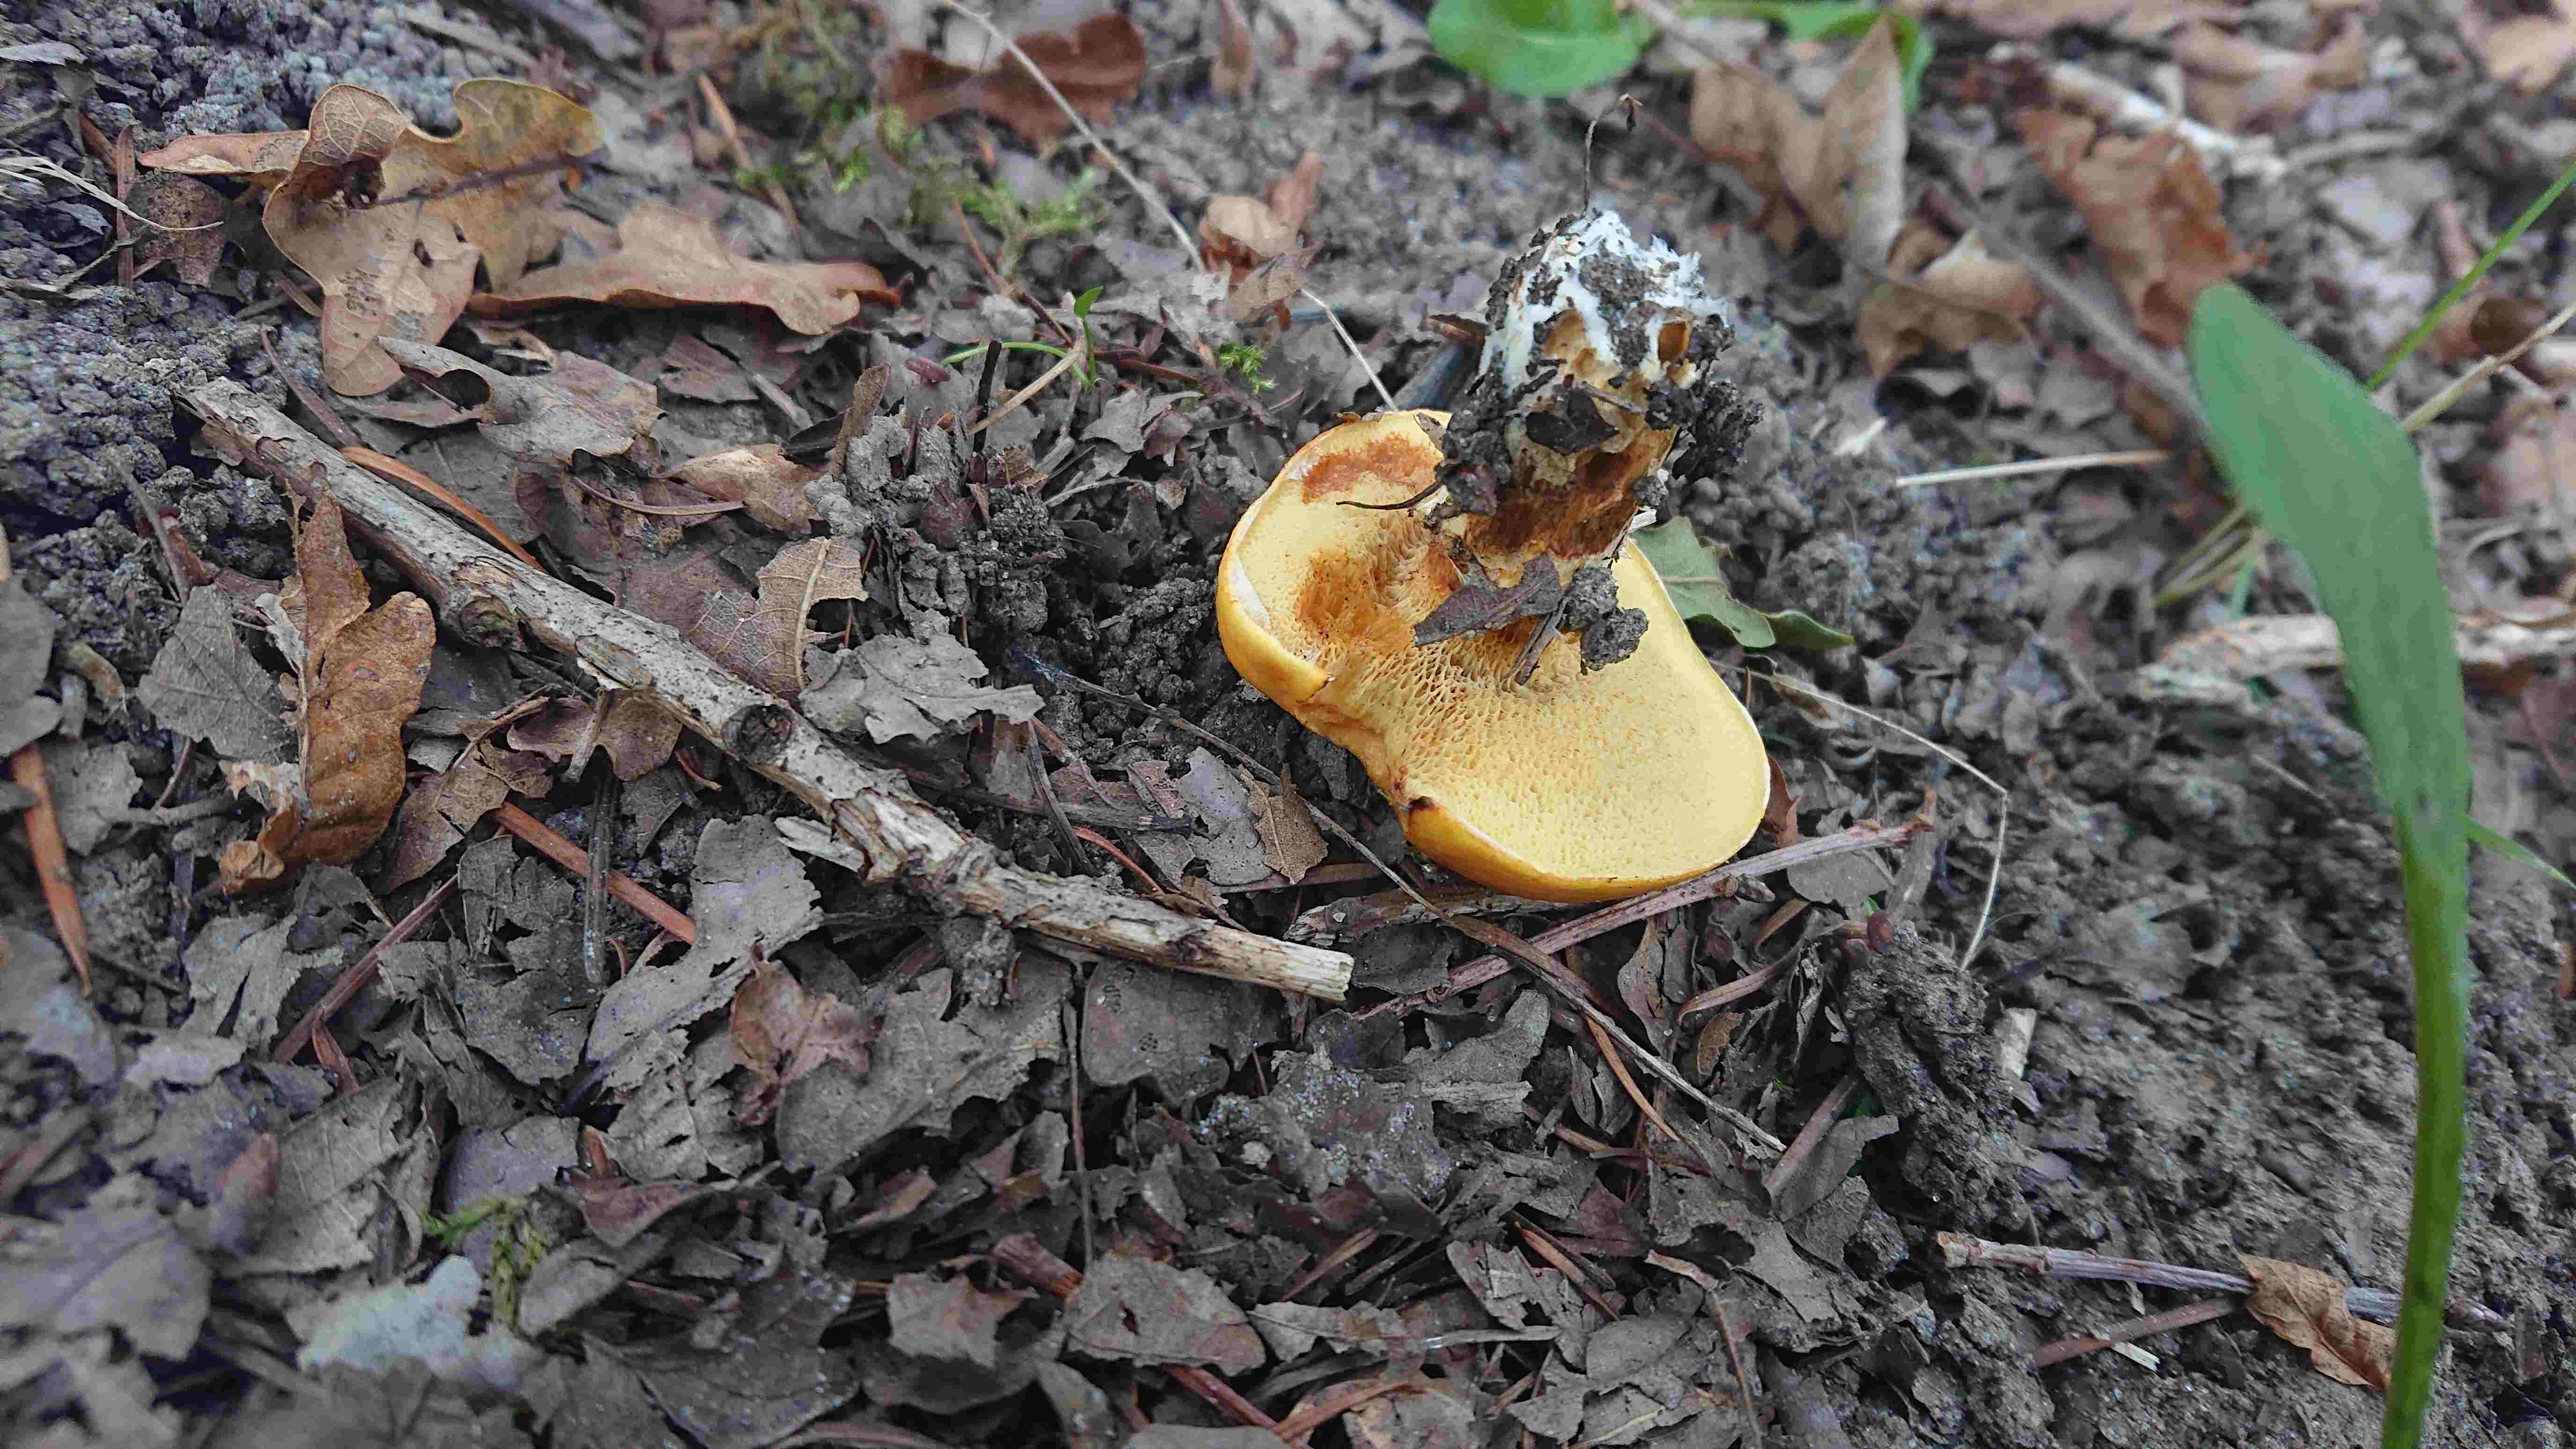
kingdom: Fungi
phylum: Basidiomycota
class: Agaricomycetes
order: Boletales
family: Suillaceae
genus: Suillus
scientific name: Suillus grevillei
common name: lærke-slimrørhat
